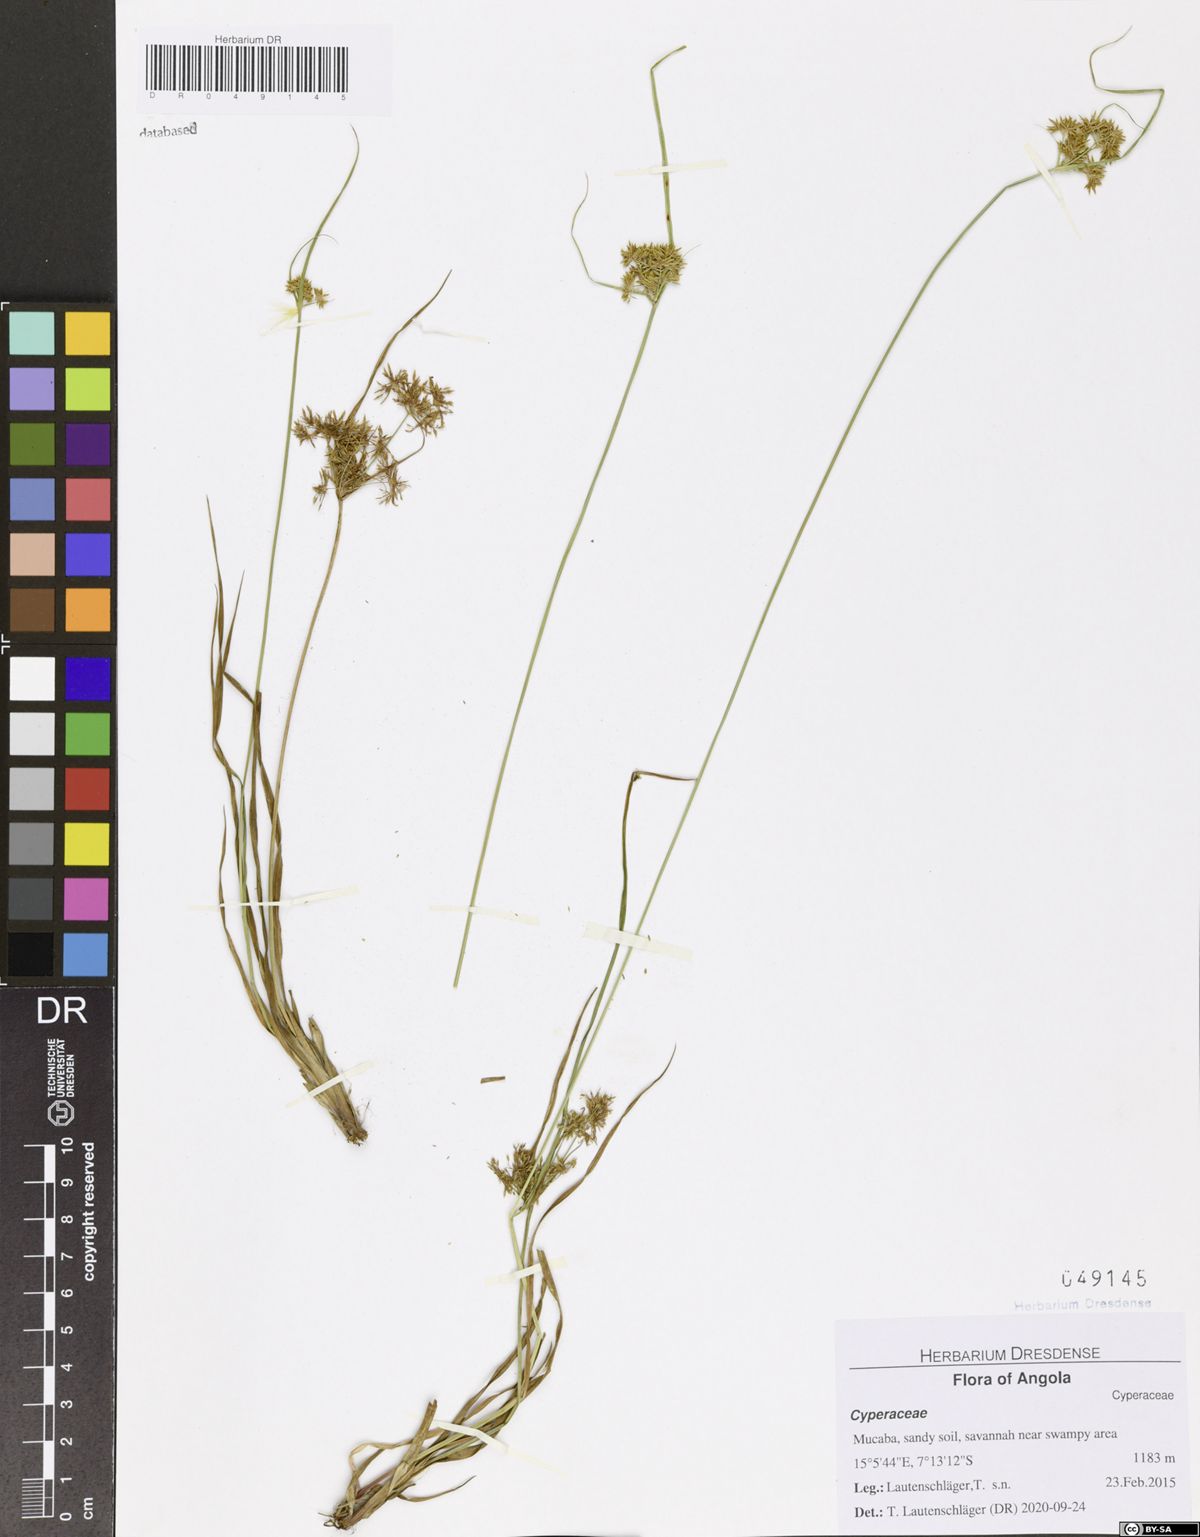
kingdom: Plantae
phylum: Tracheophyta
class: Liliopsida
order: Poales
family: Cyperaceae
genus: Cyperus
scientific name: Cyperus kipasensis
